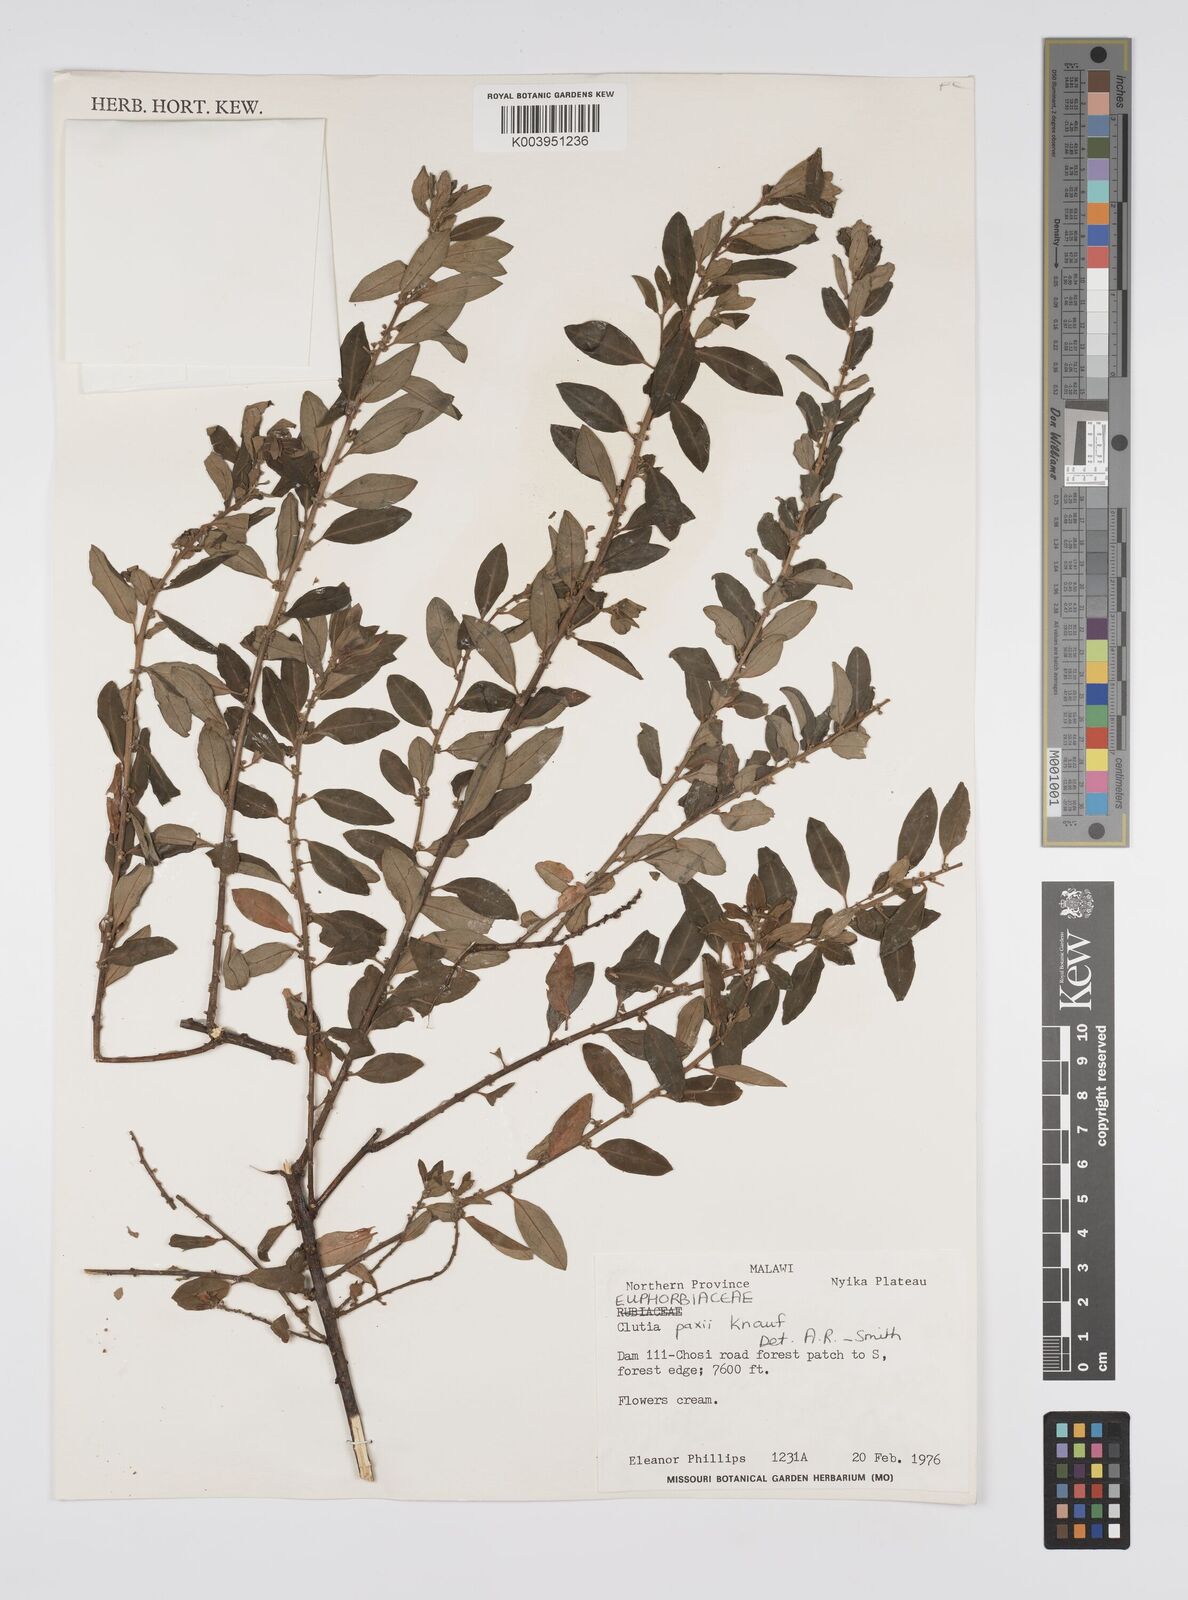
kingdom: Plantae
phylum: Tracheophyta
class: Magnoliopsida
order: Malpighiales
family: Peraceae
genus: Clutia
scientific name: Clutia paxii
